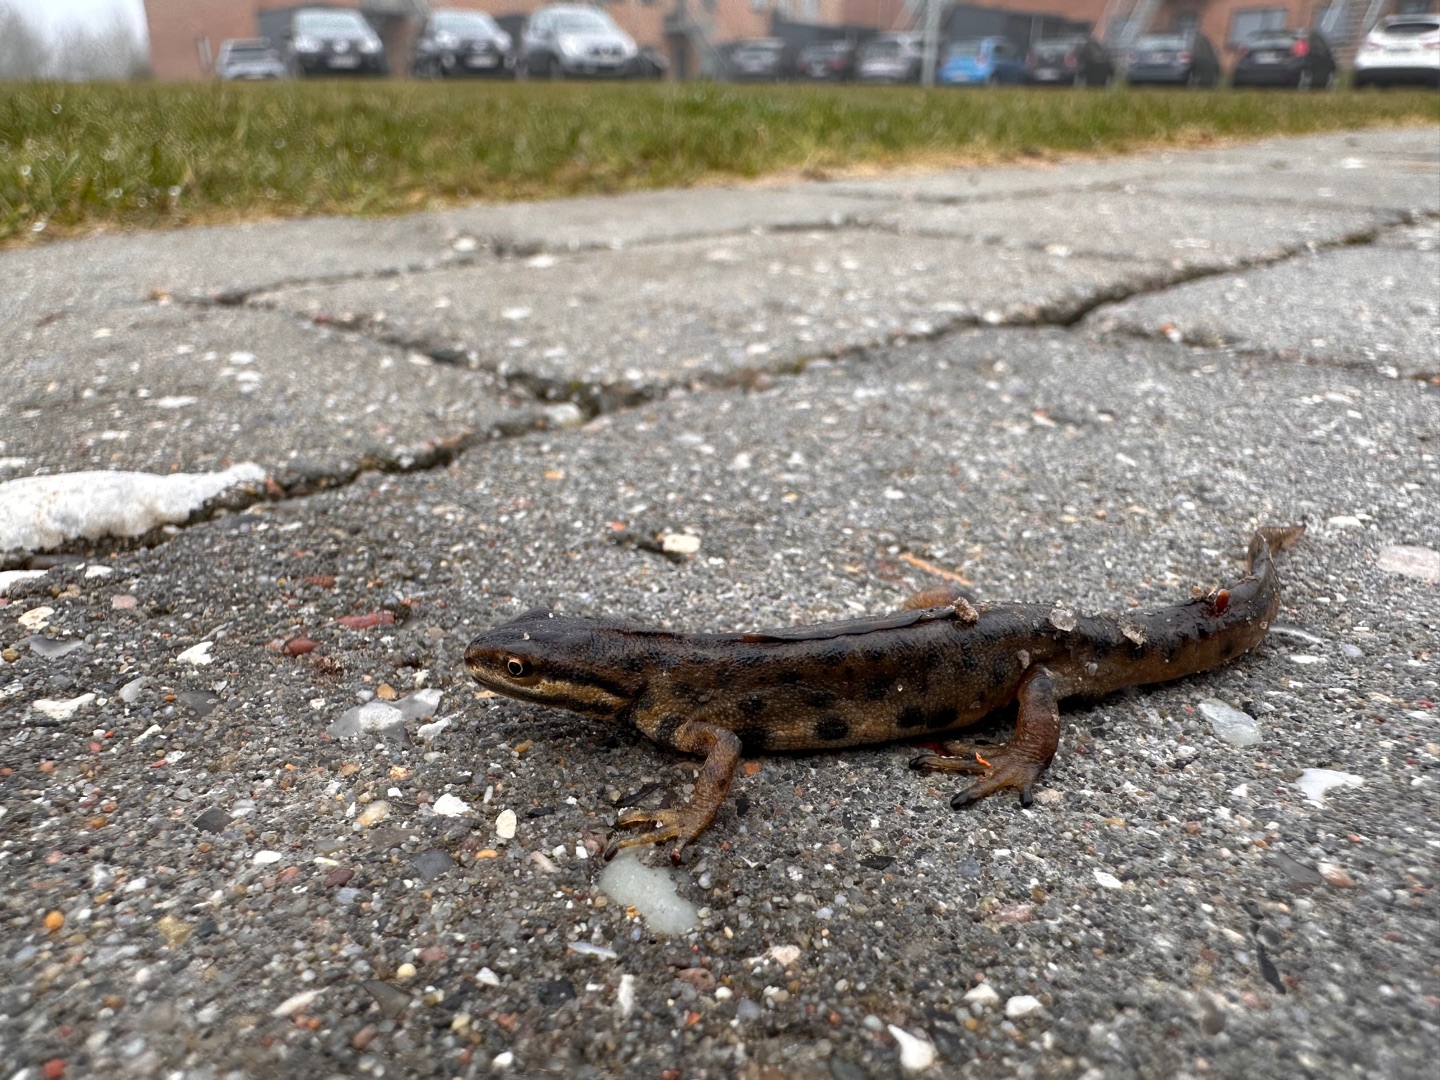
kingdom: Animalia
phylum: Chordata
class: Amphibia
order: Caudata
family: Salamandridae
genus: Lissotriton
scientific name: Lissotriton vulgaris
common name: Lille vandsalamander
